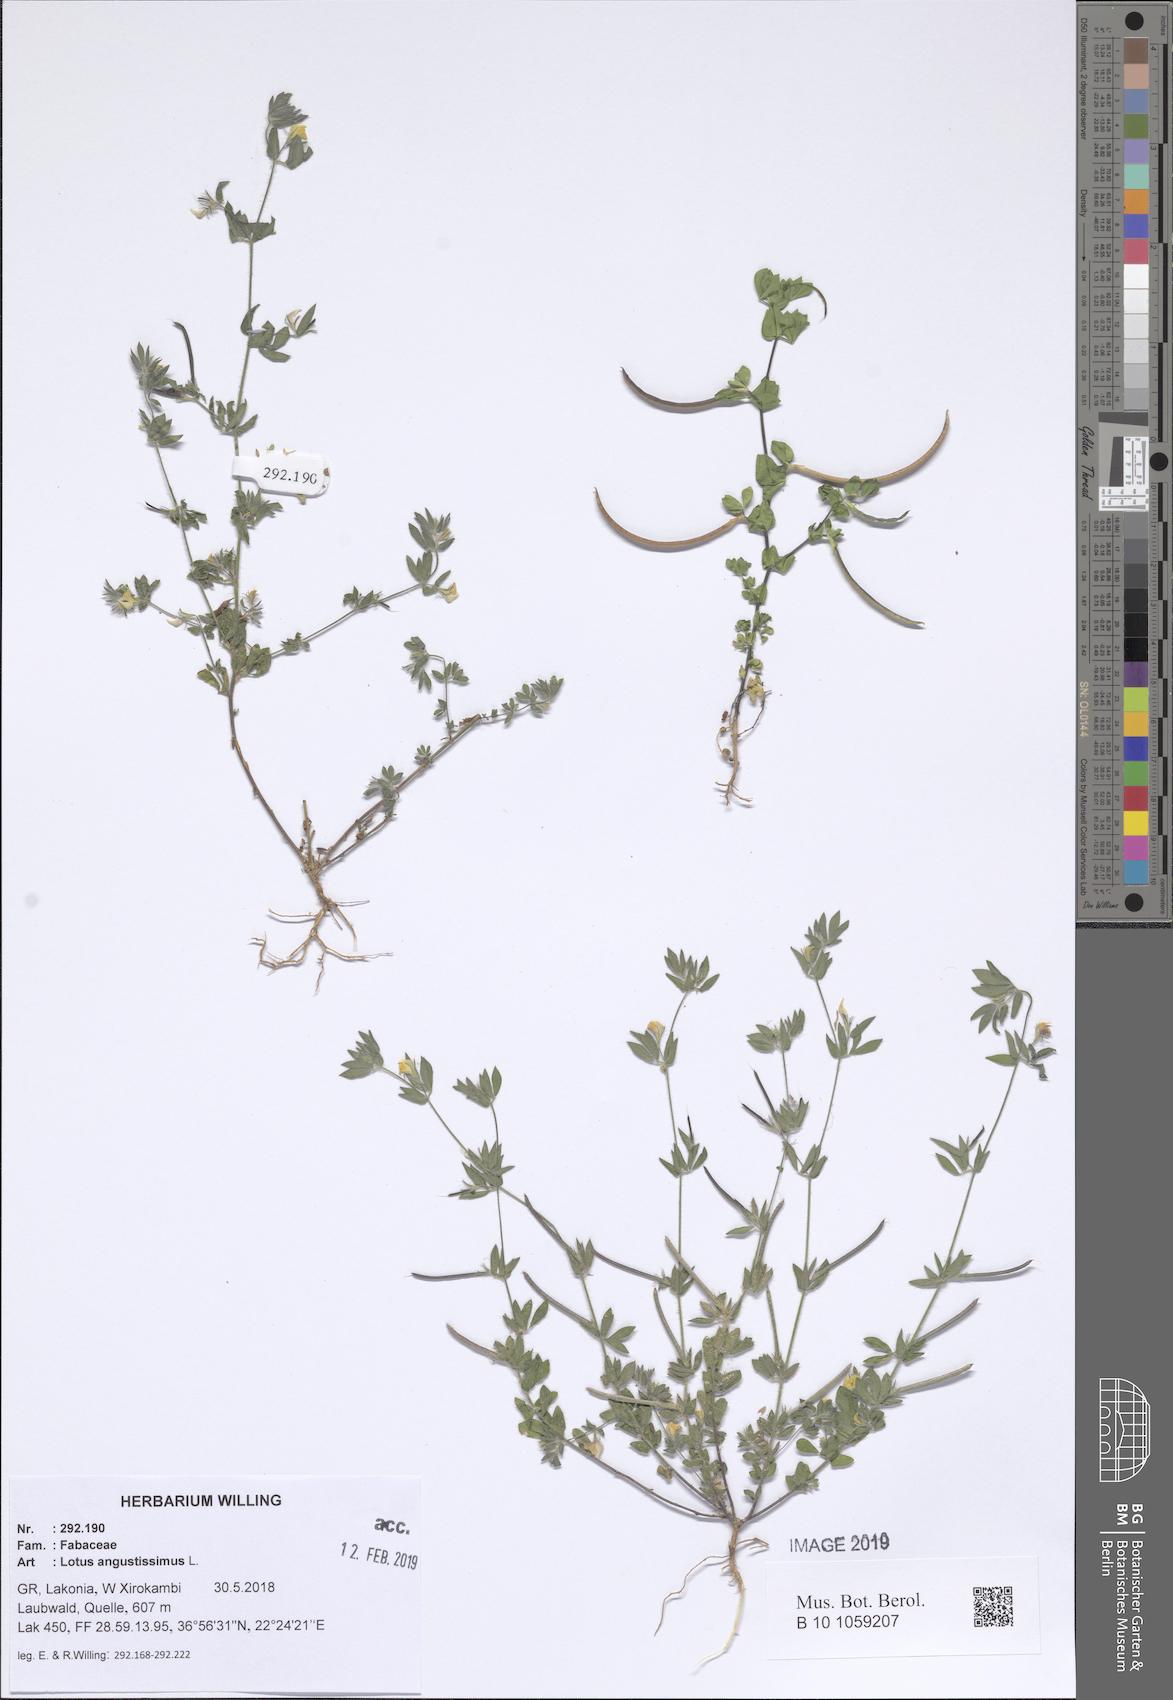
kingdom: Plantae
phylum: Tracheophyta
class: Magnoliopsida
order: Fabales
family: Fabaceae
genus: Lotus
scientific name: Lotus angustissimus
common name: Slender bird's-foot trefoil
